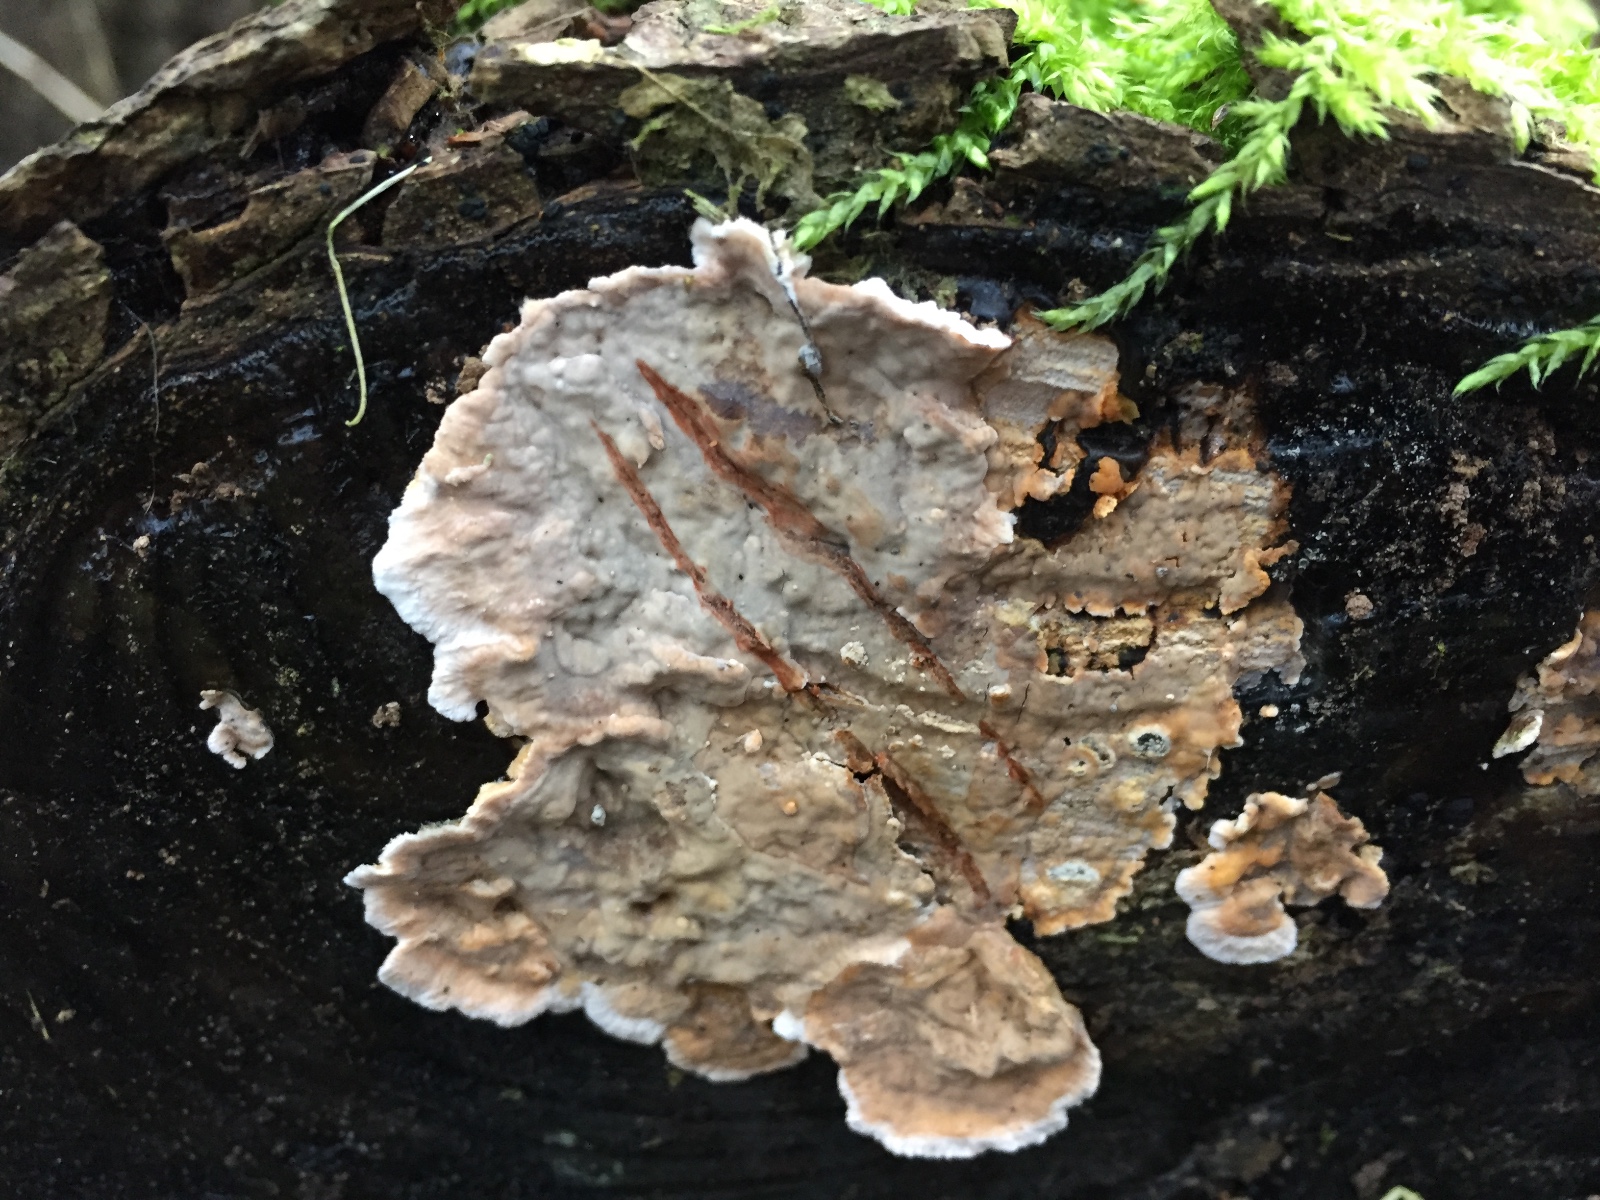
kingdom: Fungi
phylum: Basidiomycota
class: Agaricomycetes
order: Russulales
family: Stereaceae
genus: Stereum
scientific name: Stereum rugosum
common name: rynket lædersvamp
